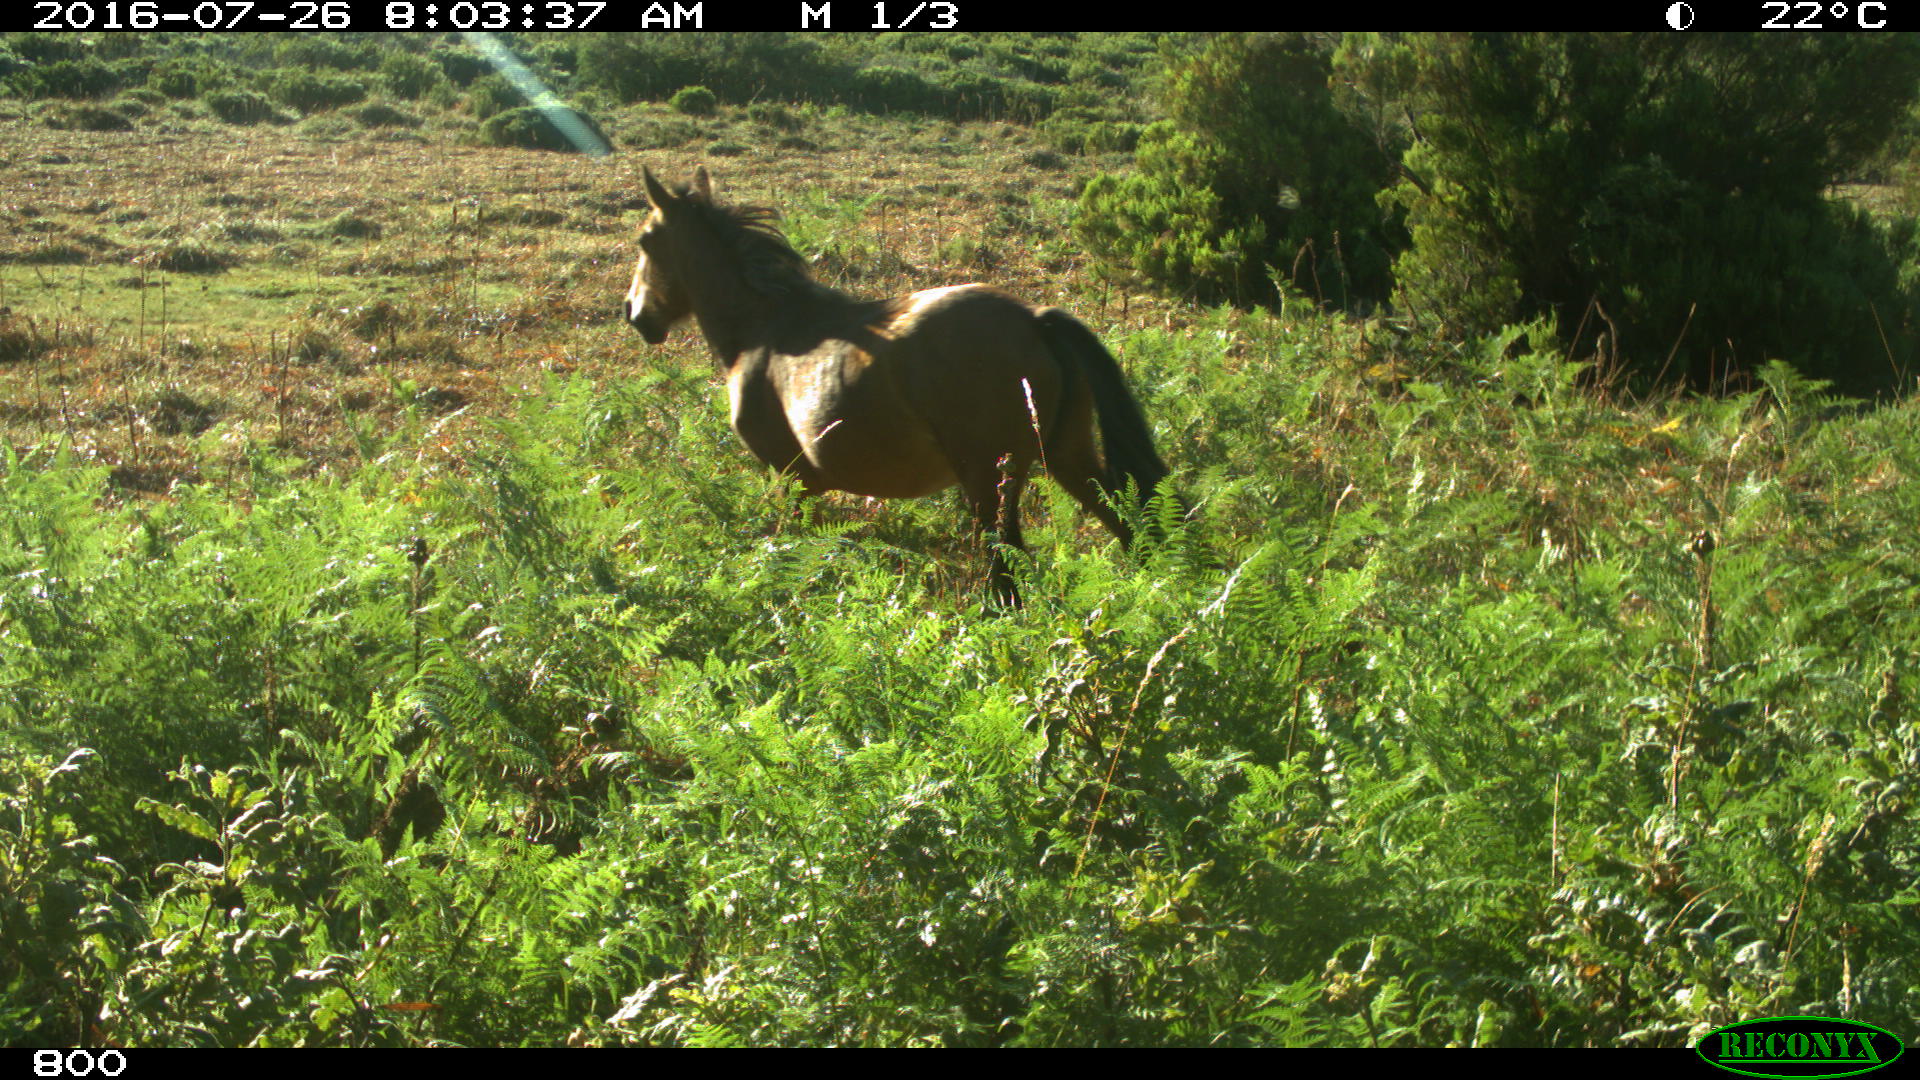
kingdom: Animalia
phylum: Chordata
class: Mammalia
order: Perissodactyla
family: Equidae
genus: Equus
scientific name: Equus caballus
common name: Horse
